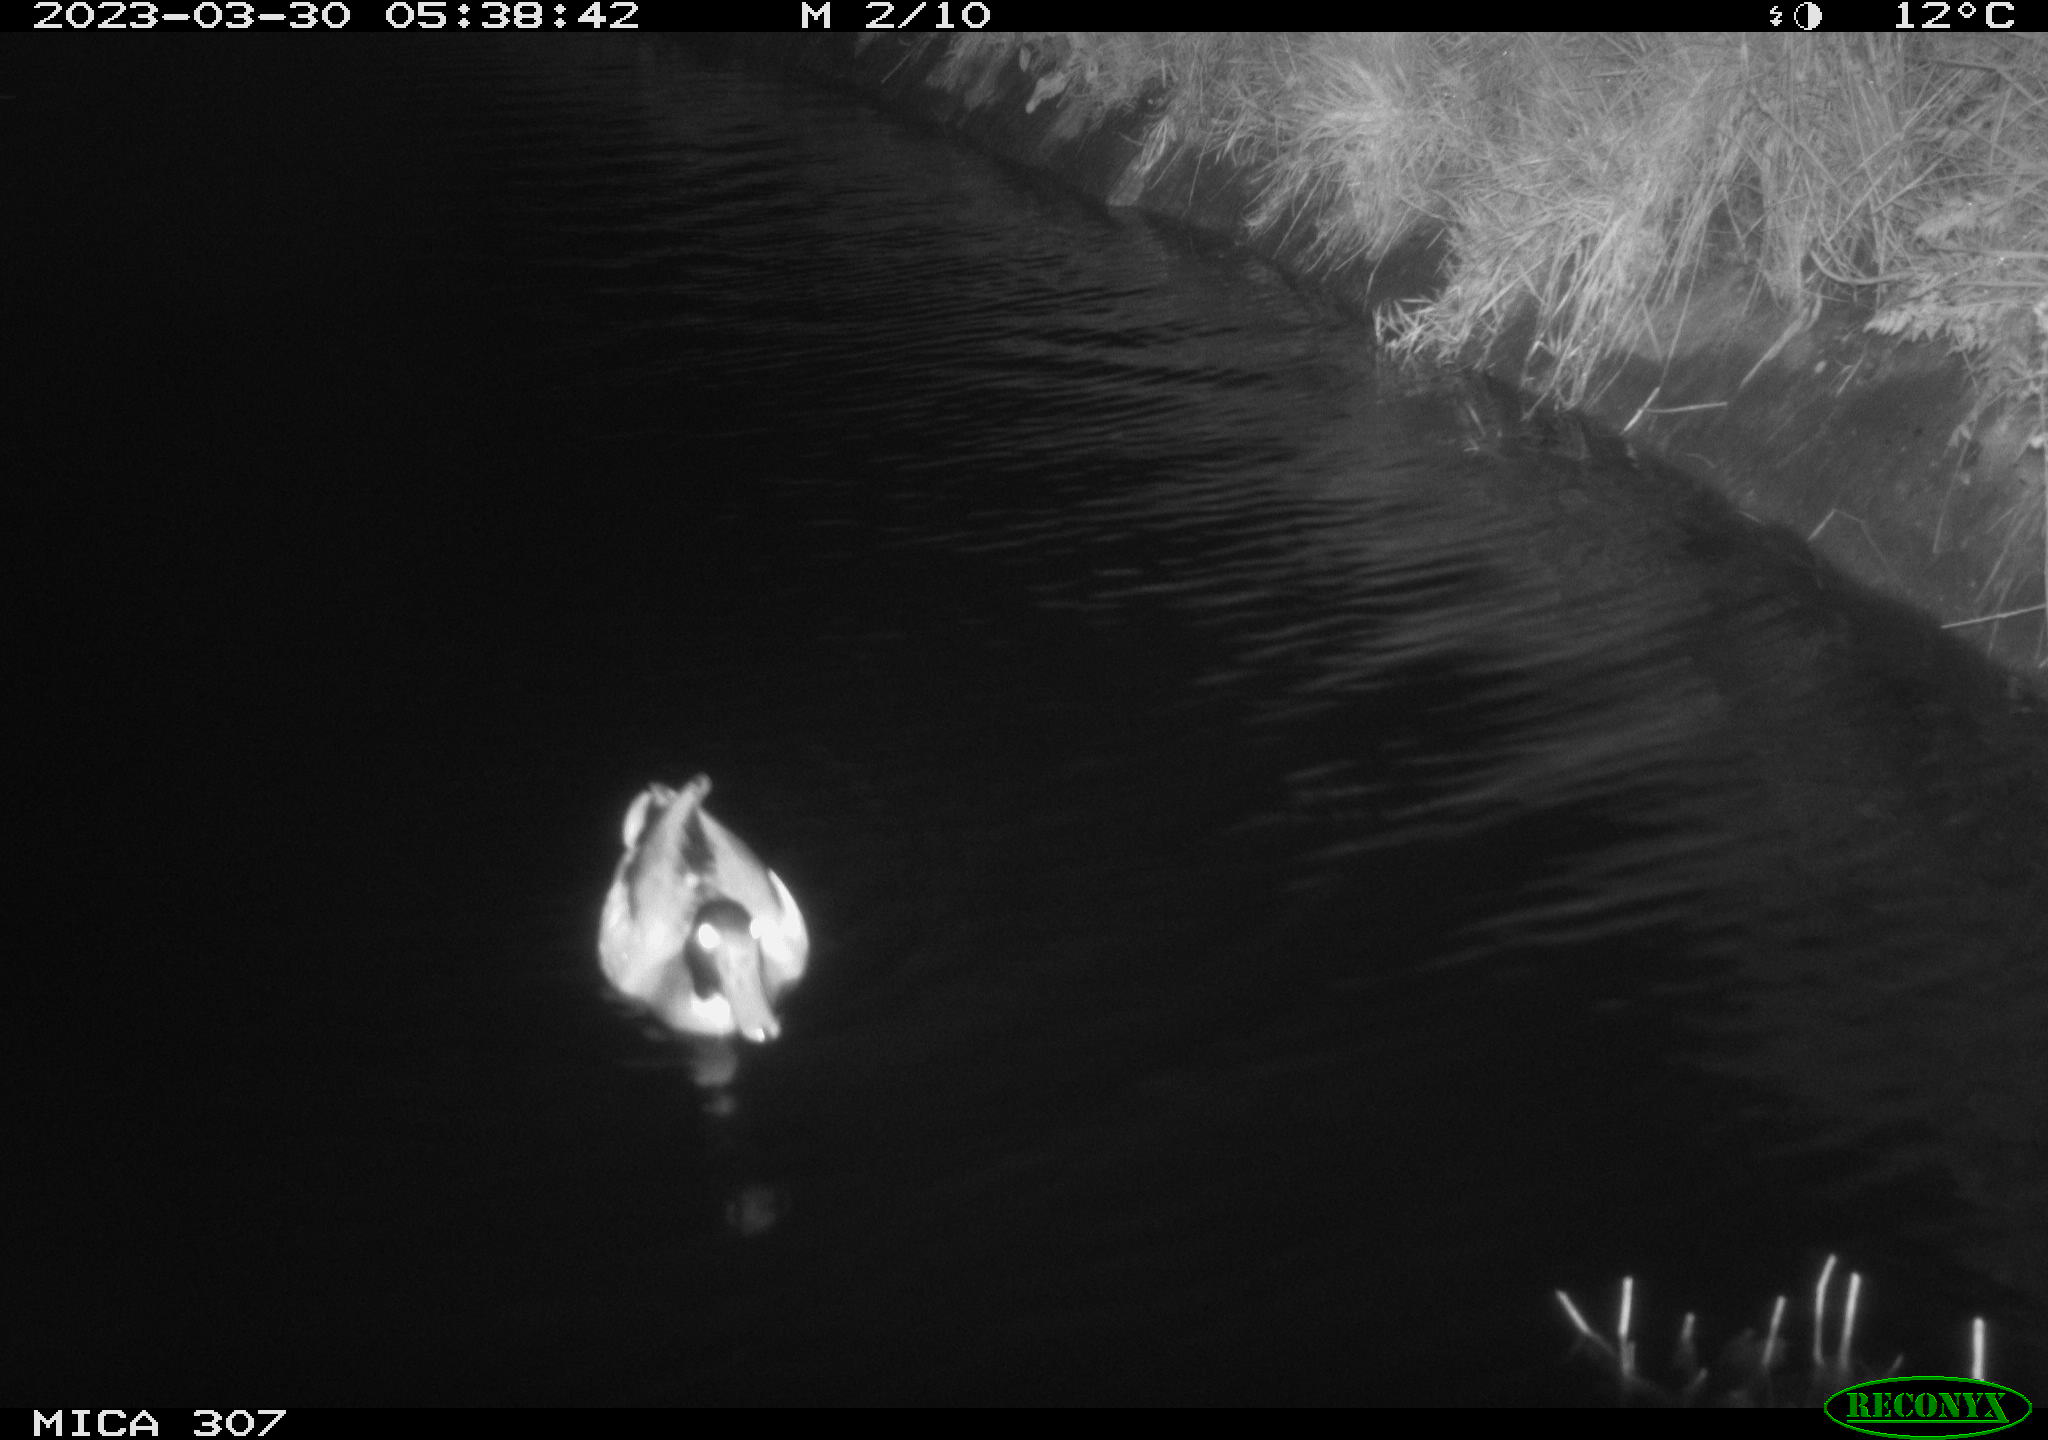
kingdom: Animalia
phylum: Chordata
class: Aves
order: Anseriformes
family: Anatidae
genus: Anas
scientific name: Anas
